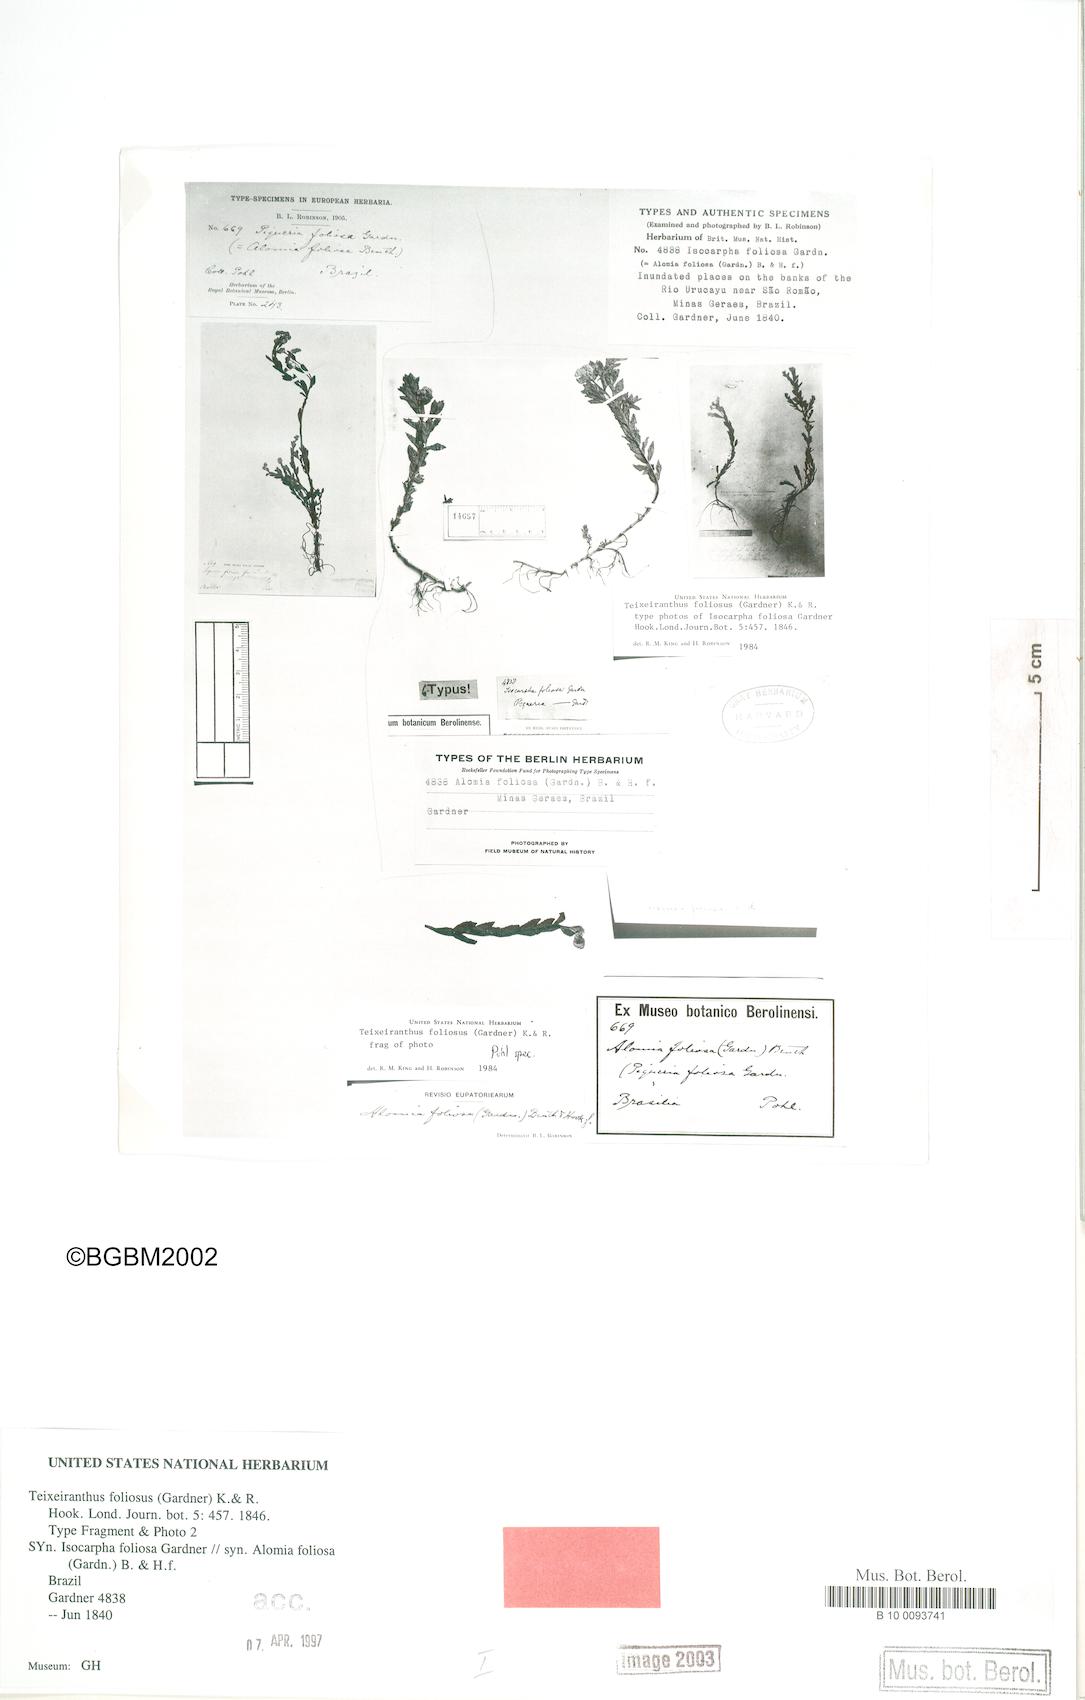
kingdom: Plantae
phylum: Tracheophyta
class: Magnoliopsida
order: Asterales
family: Asteraceae
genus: Teixeiranthus
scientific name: Teixeiranthus foliosus
